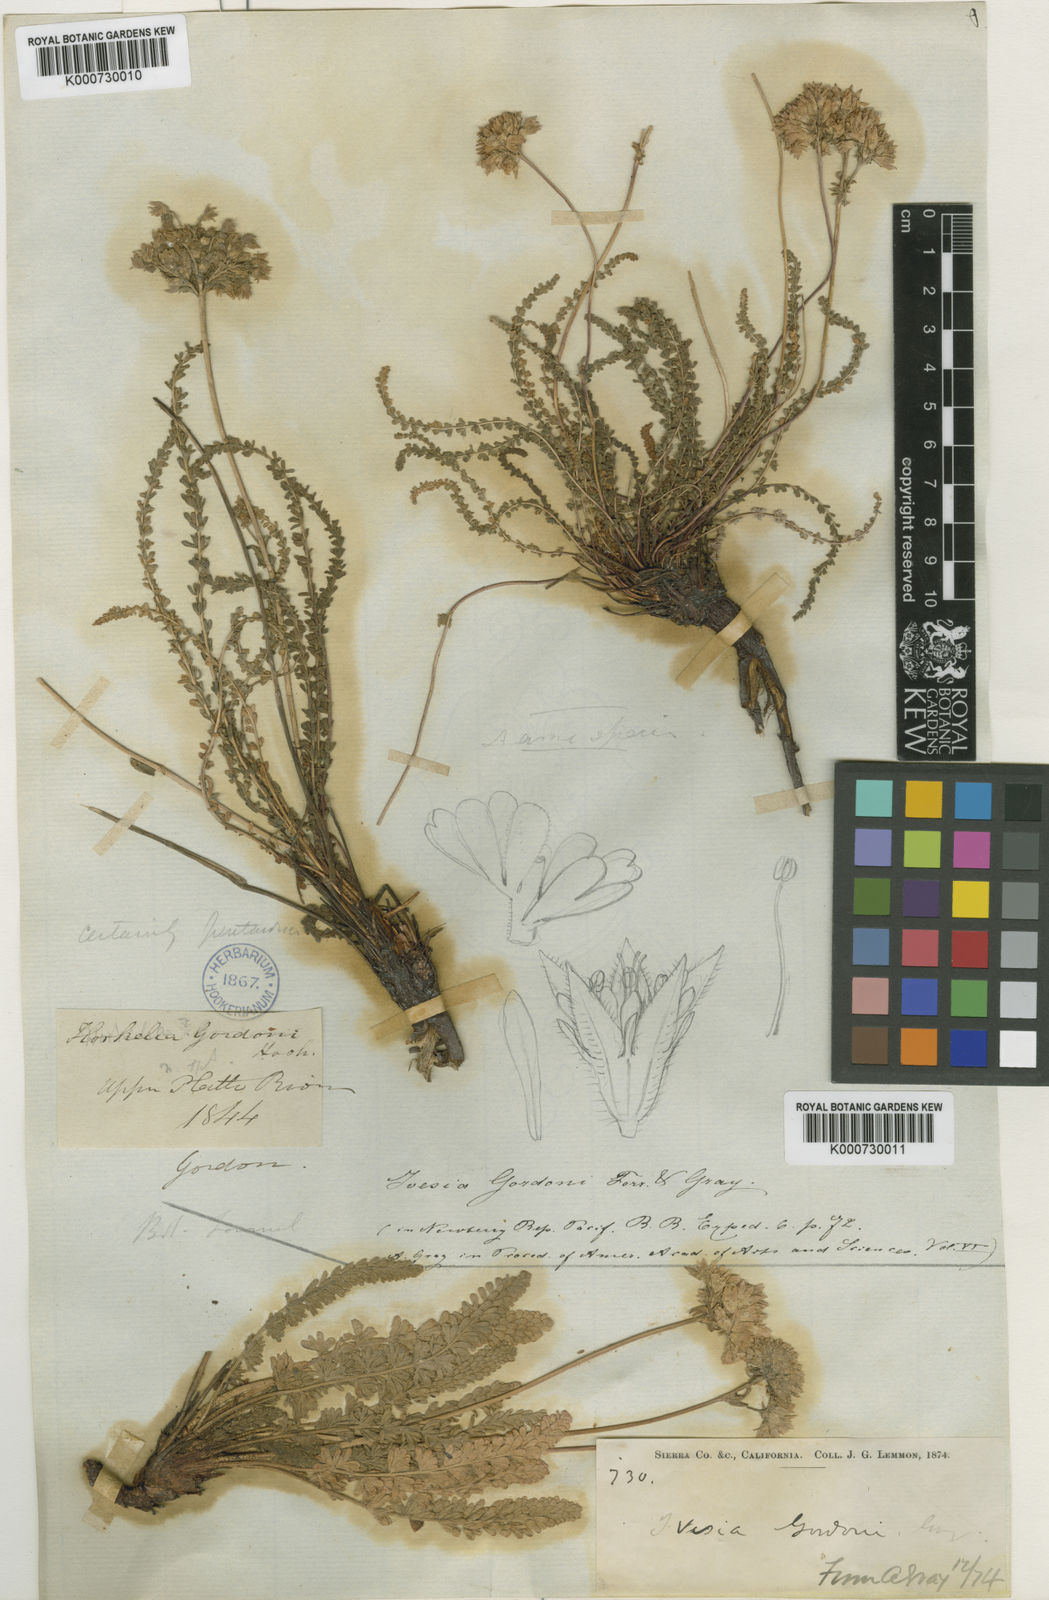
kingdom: Plantae
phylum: Tracheophyta
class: Magnoliopsida
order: Rosales
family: Rosaceae
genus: Potentilla
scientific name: Potentilla gordonii
